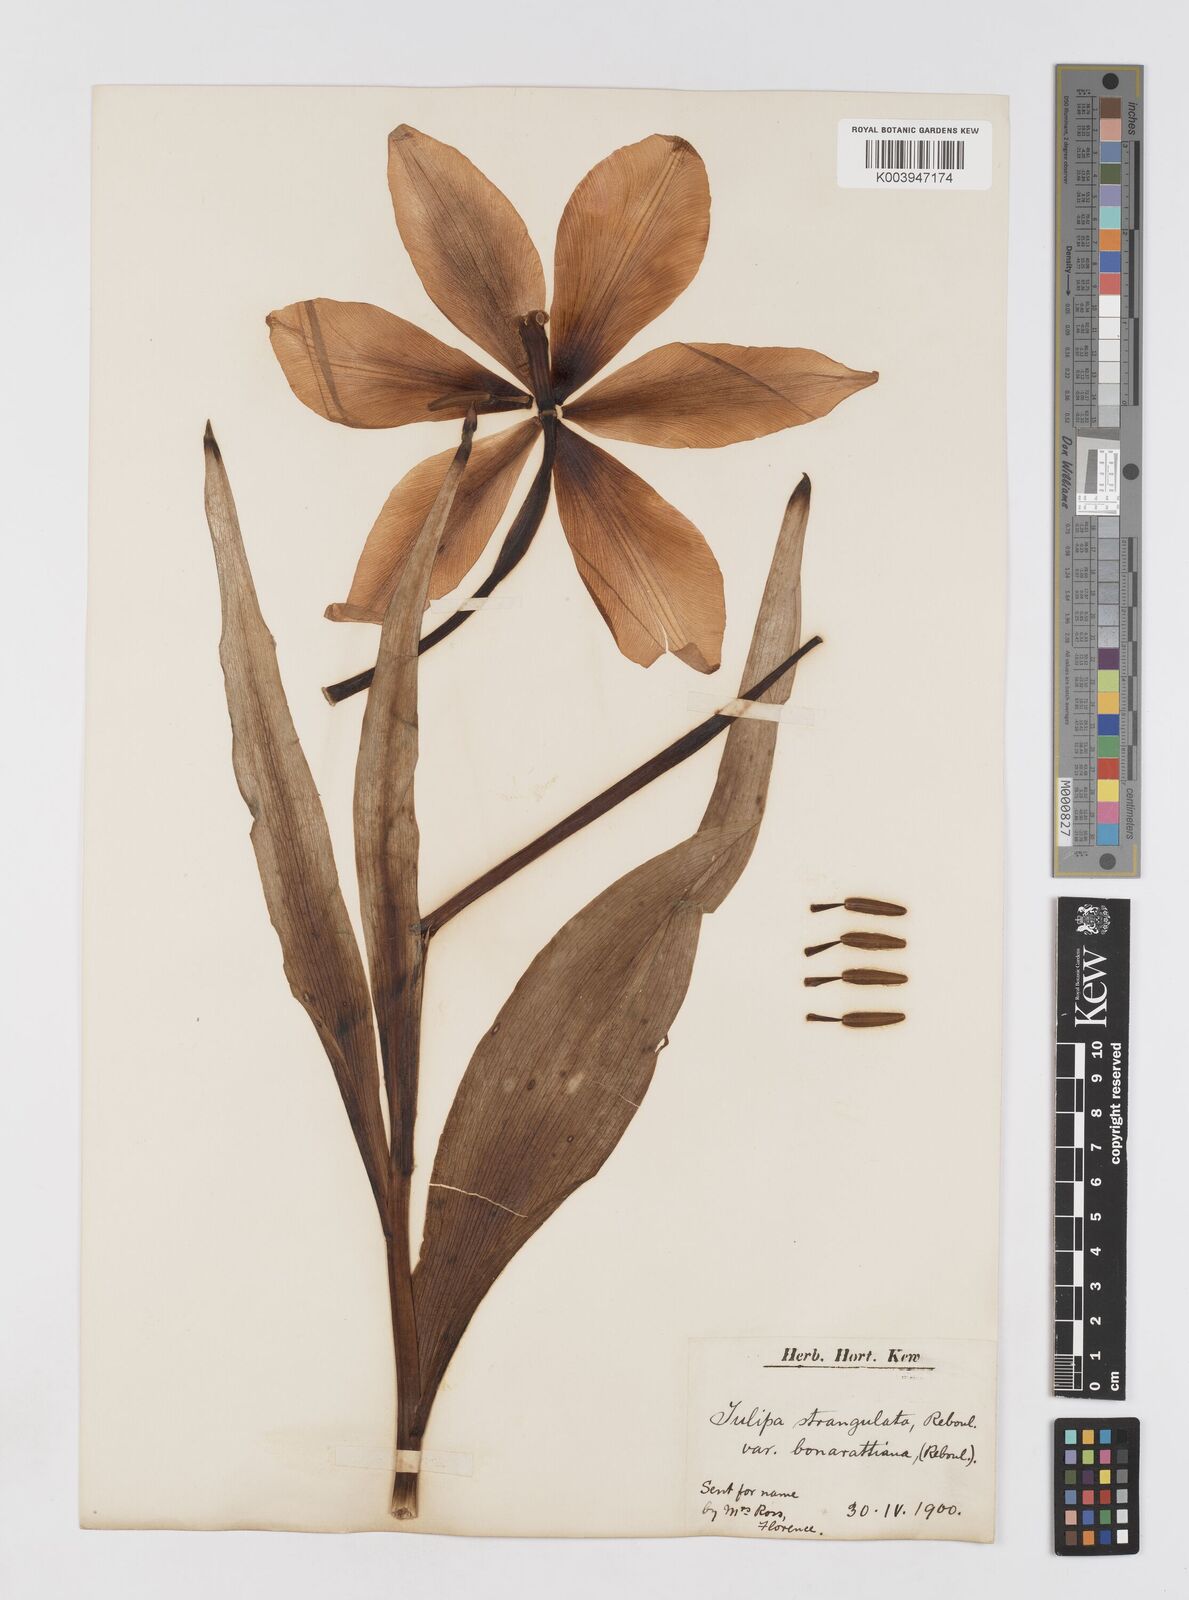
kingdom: Plantae
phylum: Tracheophyta
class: Liliopsida
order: Liliales
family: Liliaceae
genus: Tulipa
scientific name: Tulipa gesneriana
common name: Garden tulip
